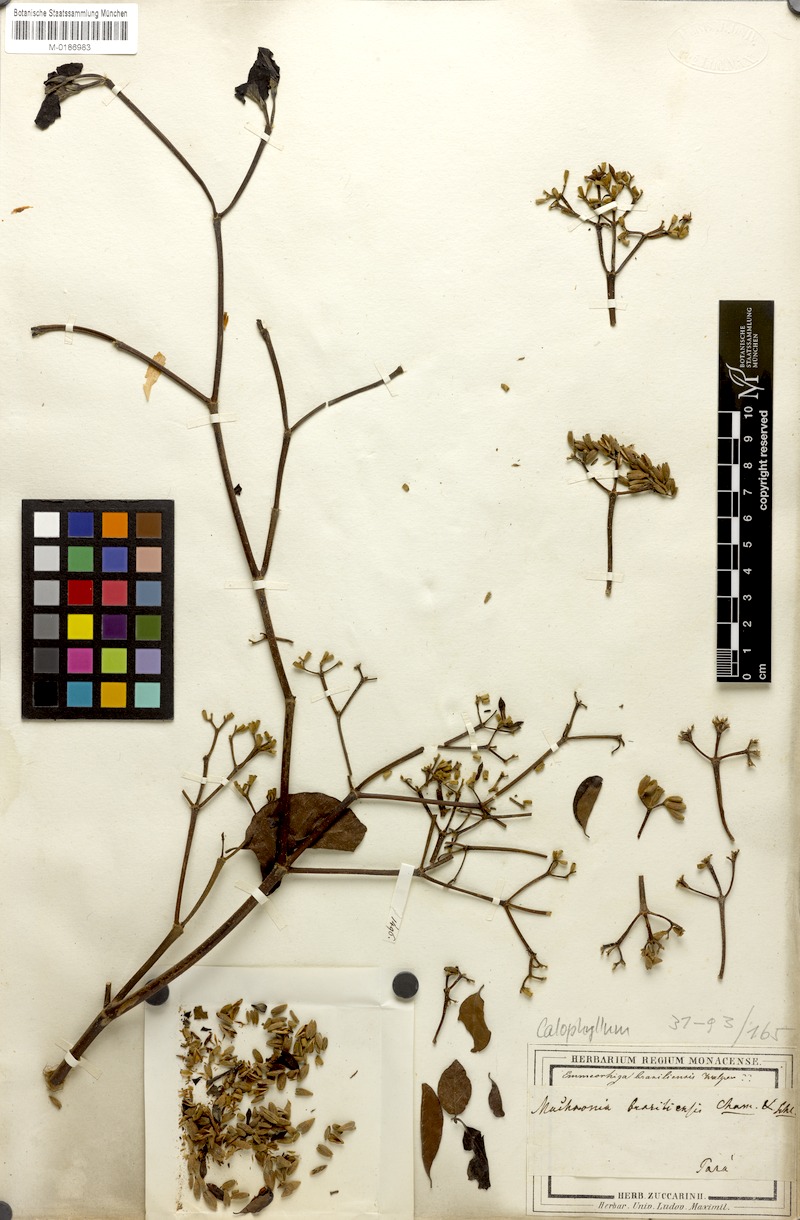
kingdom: Plantae
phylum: Tracheophyta
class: Magnoliopsida
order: Gentianales
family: Rubiaceae
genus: Machaonia
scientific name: Machaonia brasiliensis
